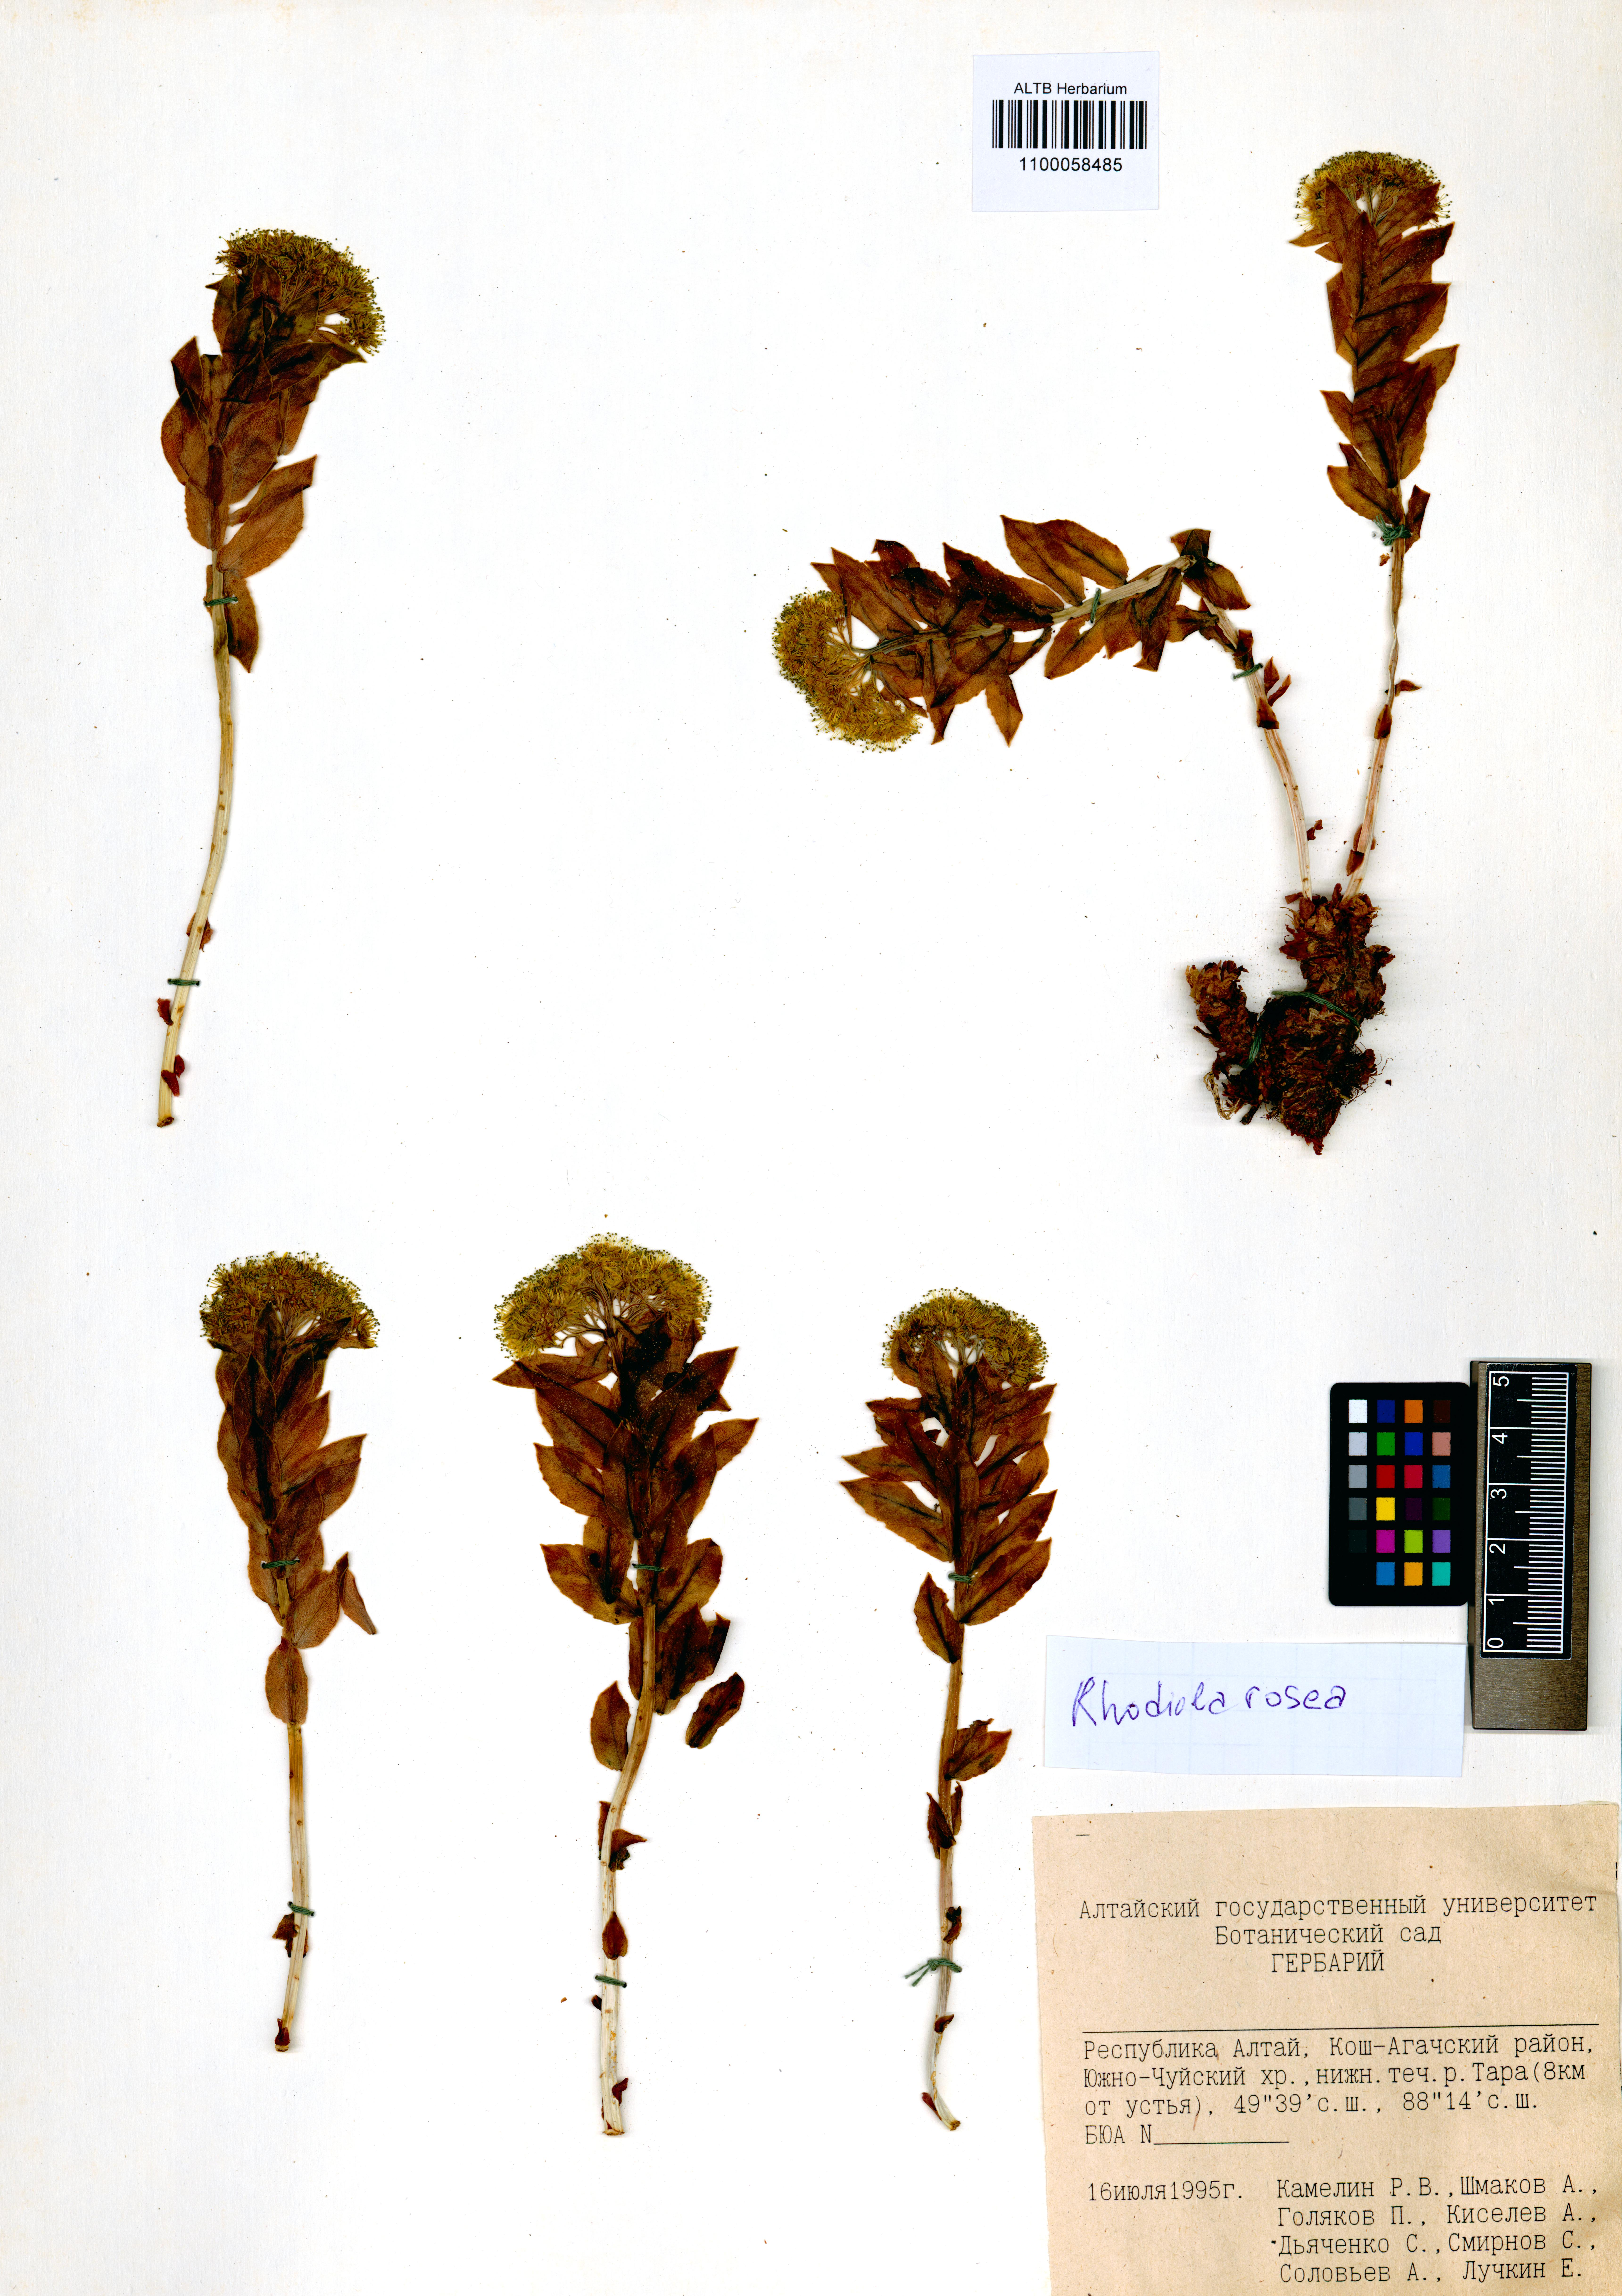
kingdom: Plantae
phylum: Tracheophyta
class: Magnoliopsida
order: Saxifragales
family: Crassulaceae
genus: Rhodiola
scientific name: Rhodiola rosea
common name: Roseroot
